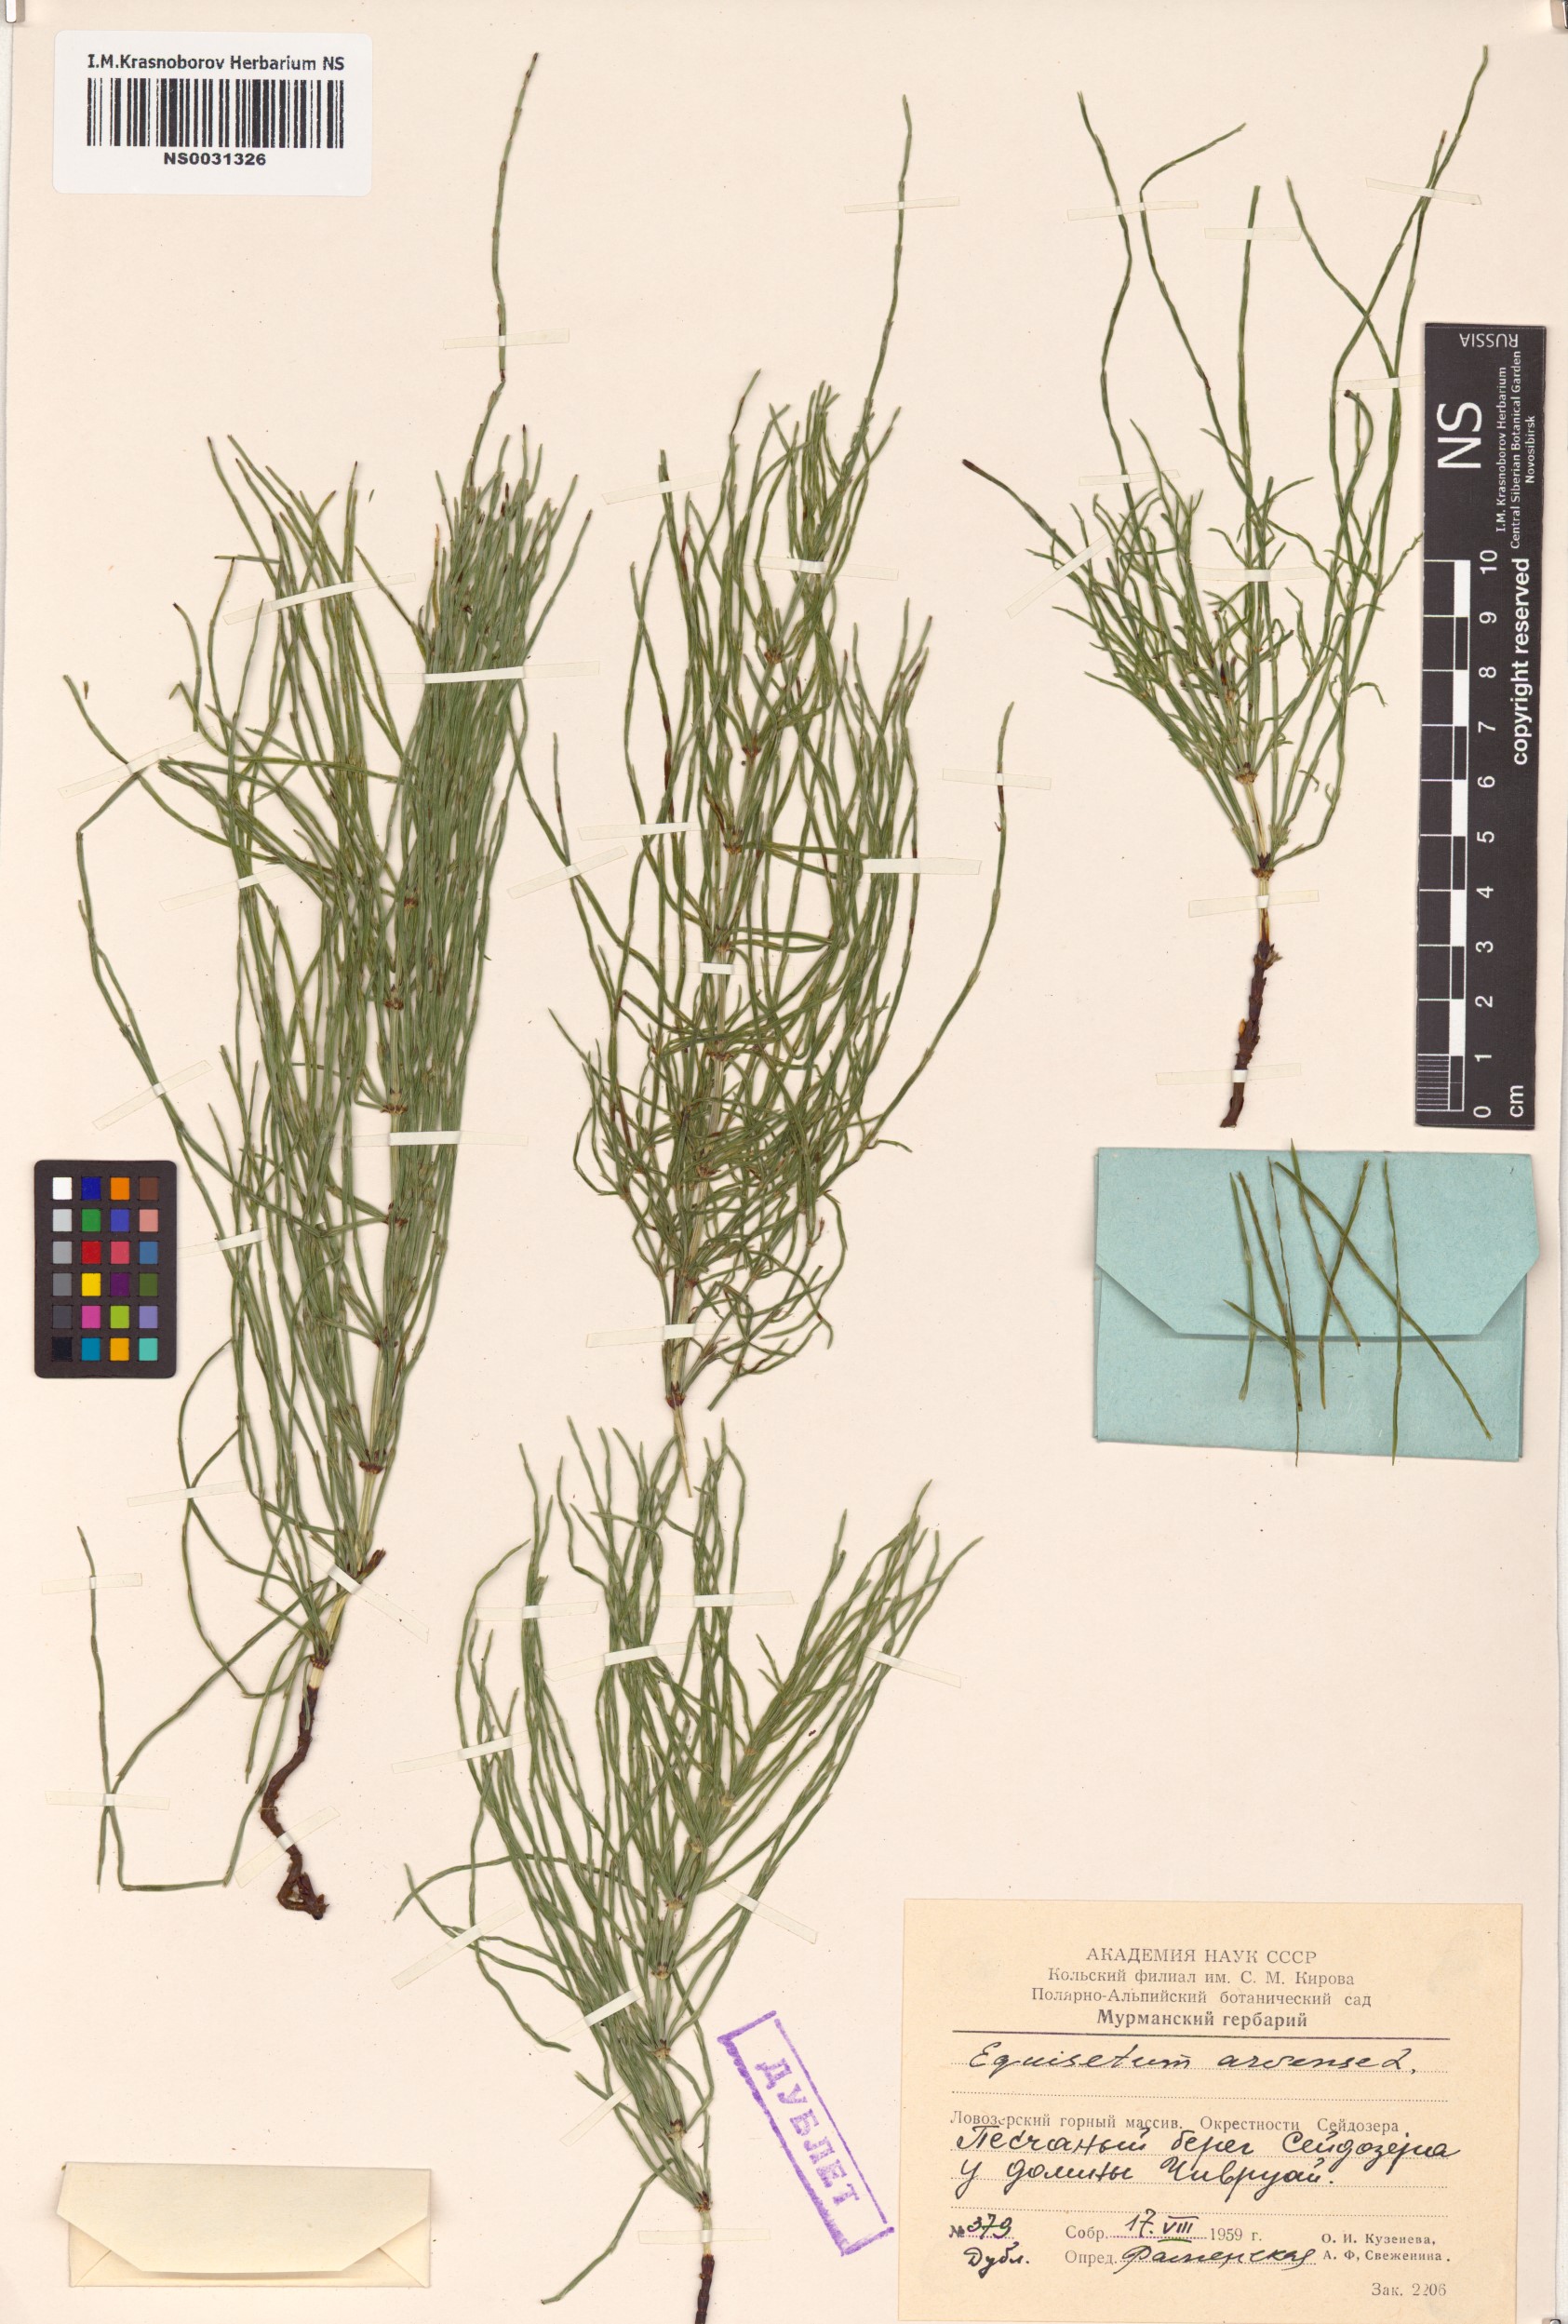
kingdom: Plantae
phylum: Tracheophyta
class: Polypodiopsida
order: Equisetales
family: Equisetaceae
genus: Equisetum
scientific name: Equisetum arvense
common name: Field horsetail
